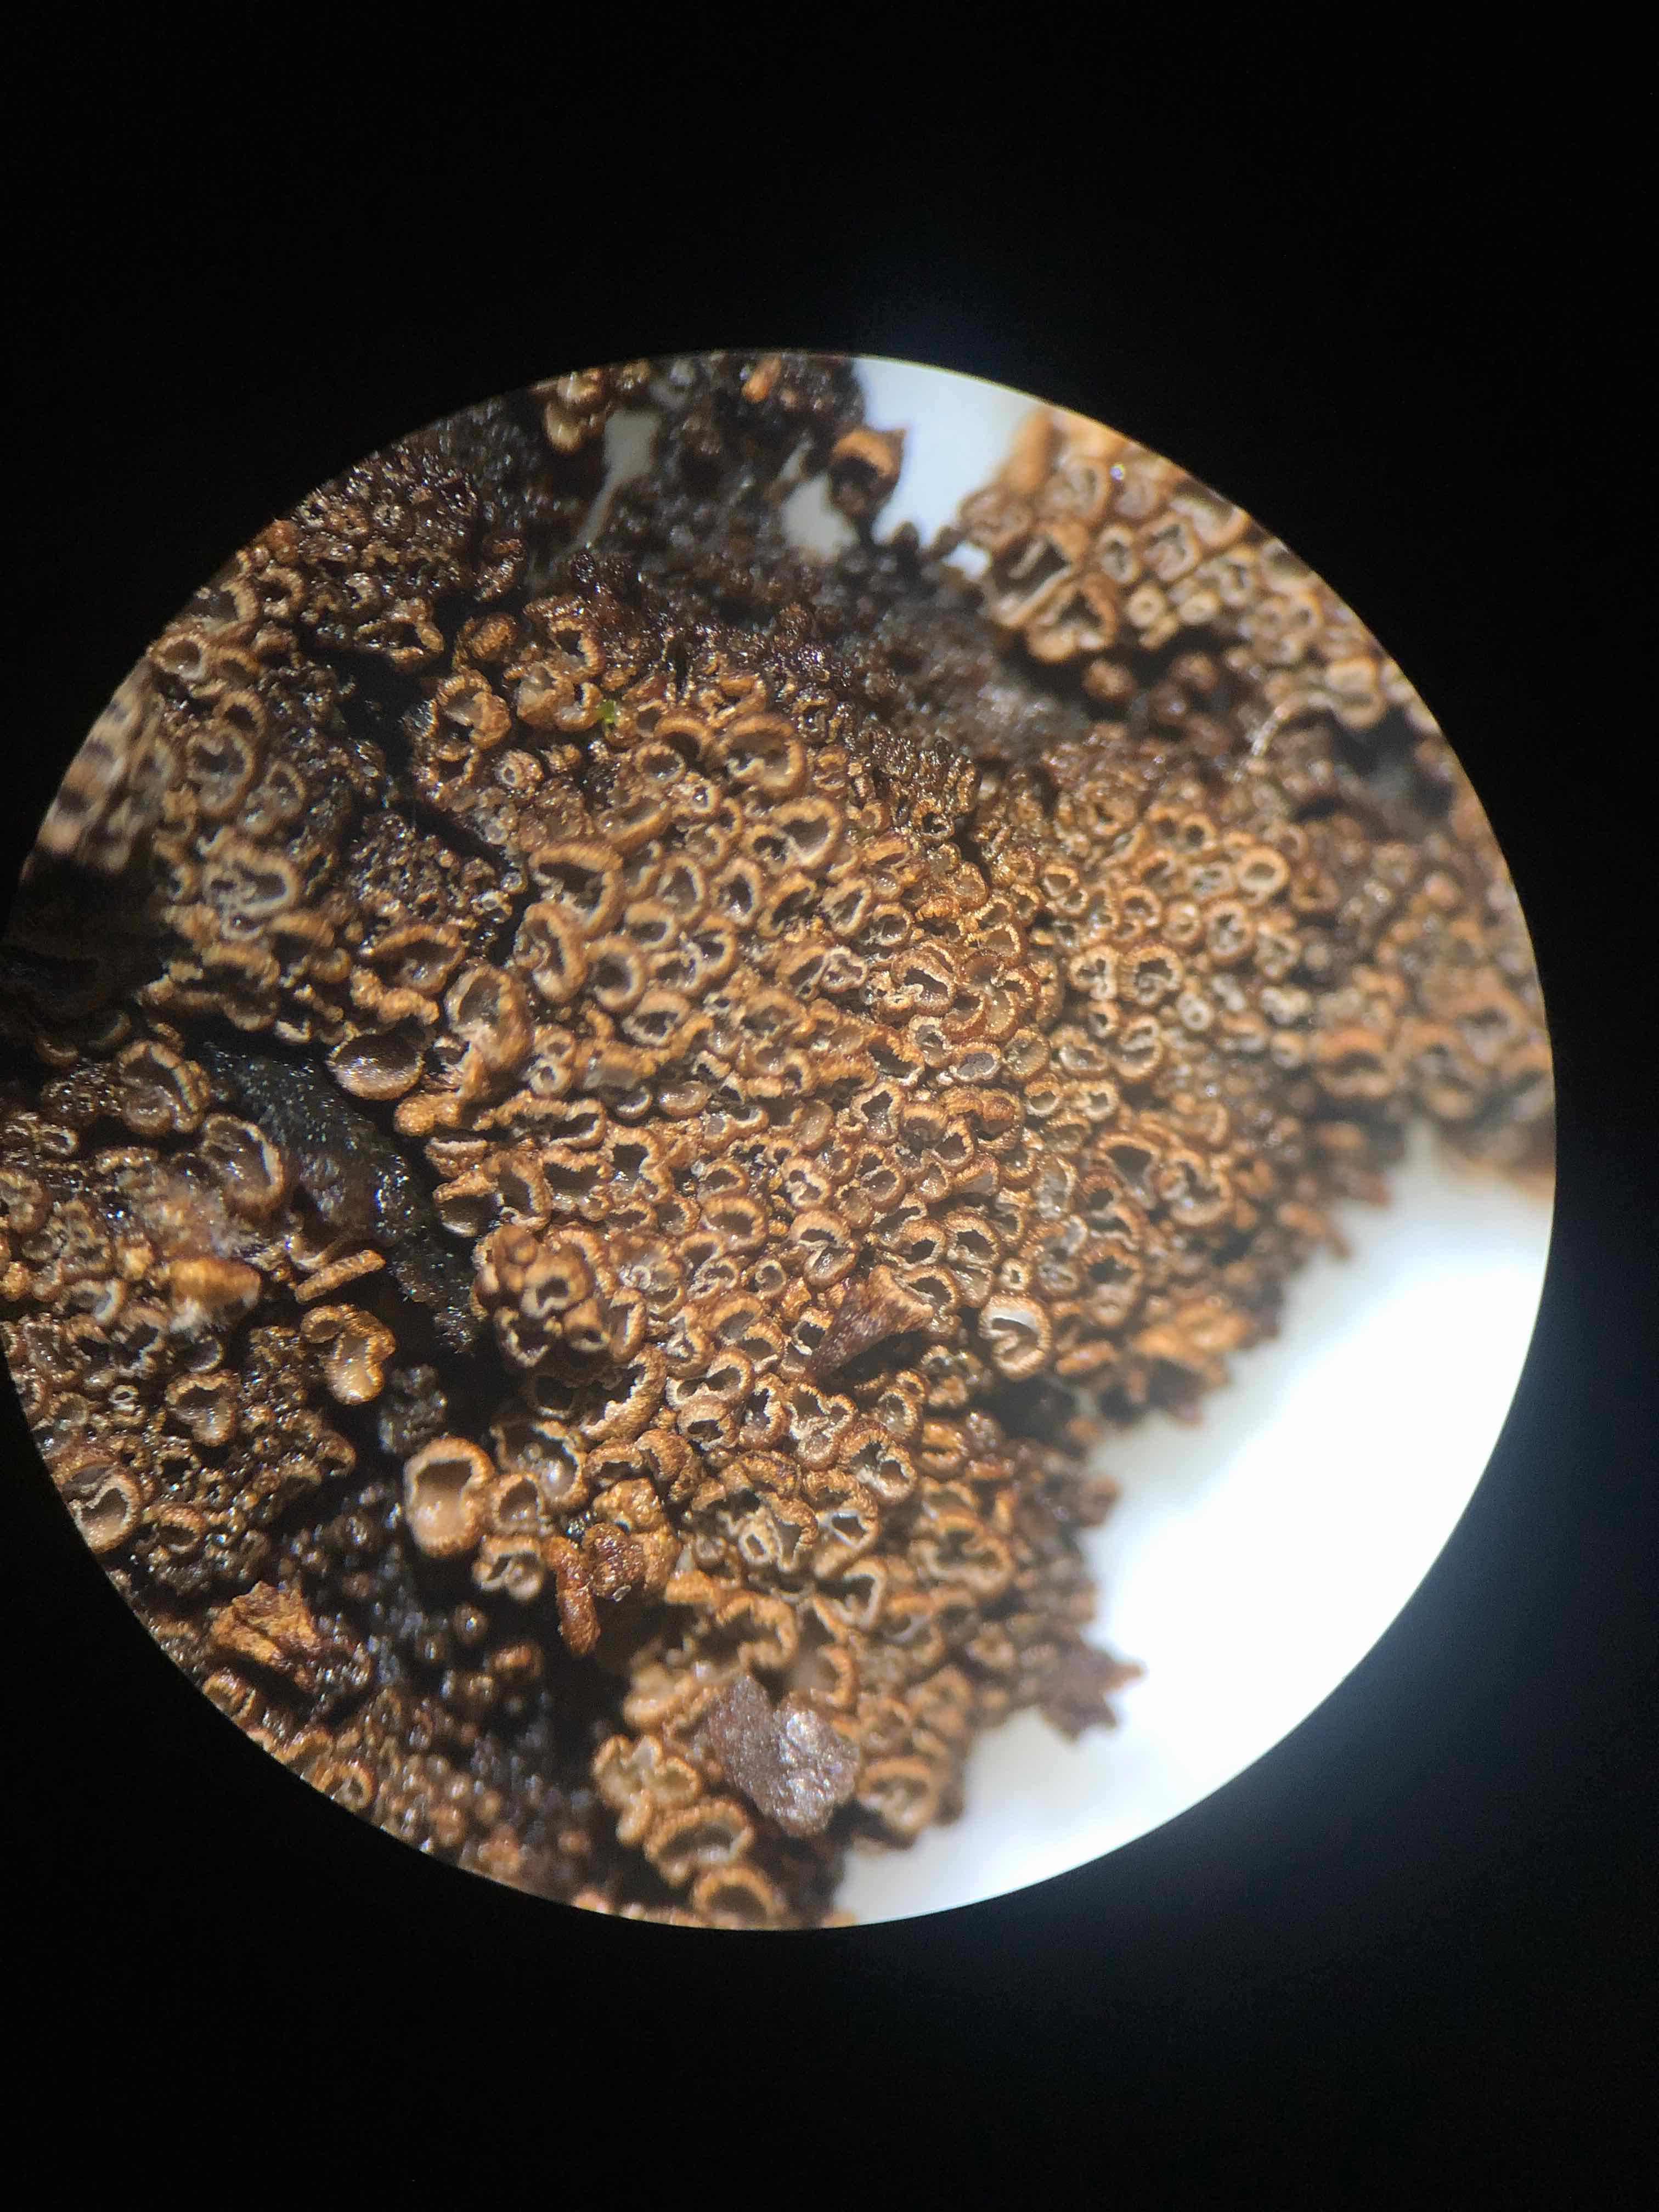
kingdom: Fungi
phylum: Basidiomycota
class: Agaricomycetes
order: Agaricales
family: Niaceae
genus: Merismodes
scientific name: Merismodes anomala
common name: almindelig læderskål
